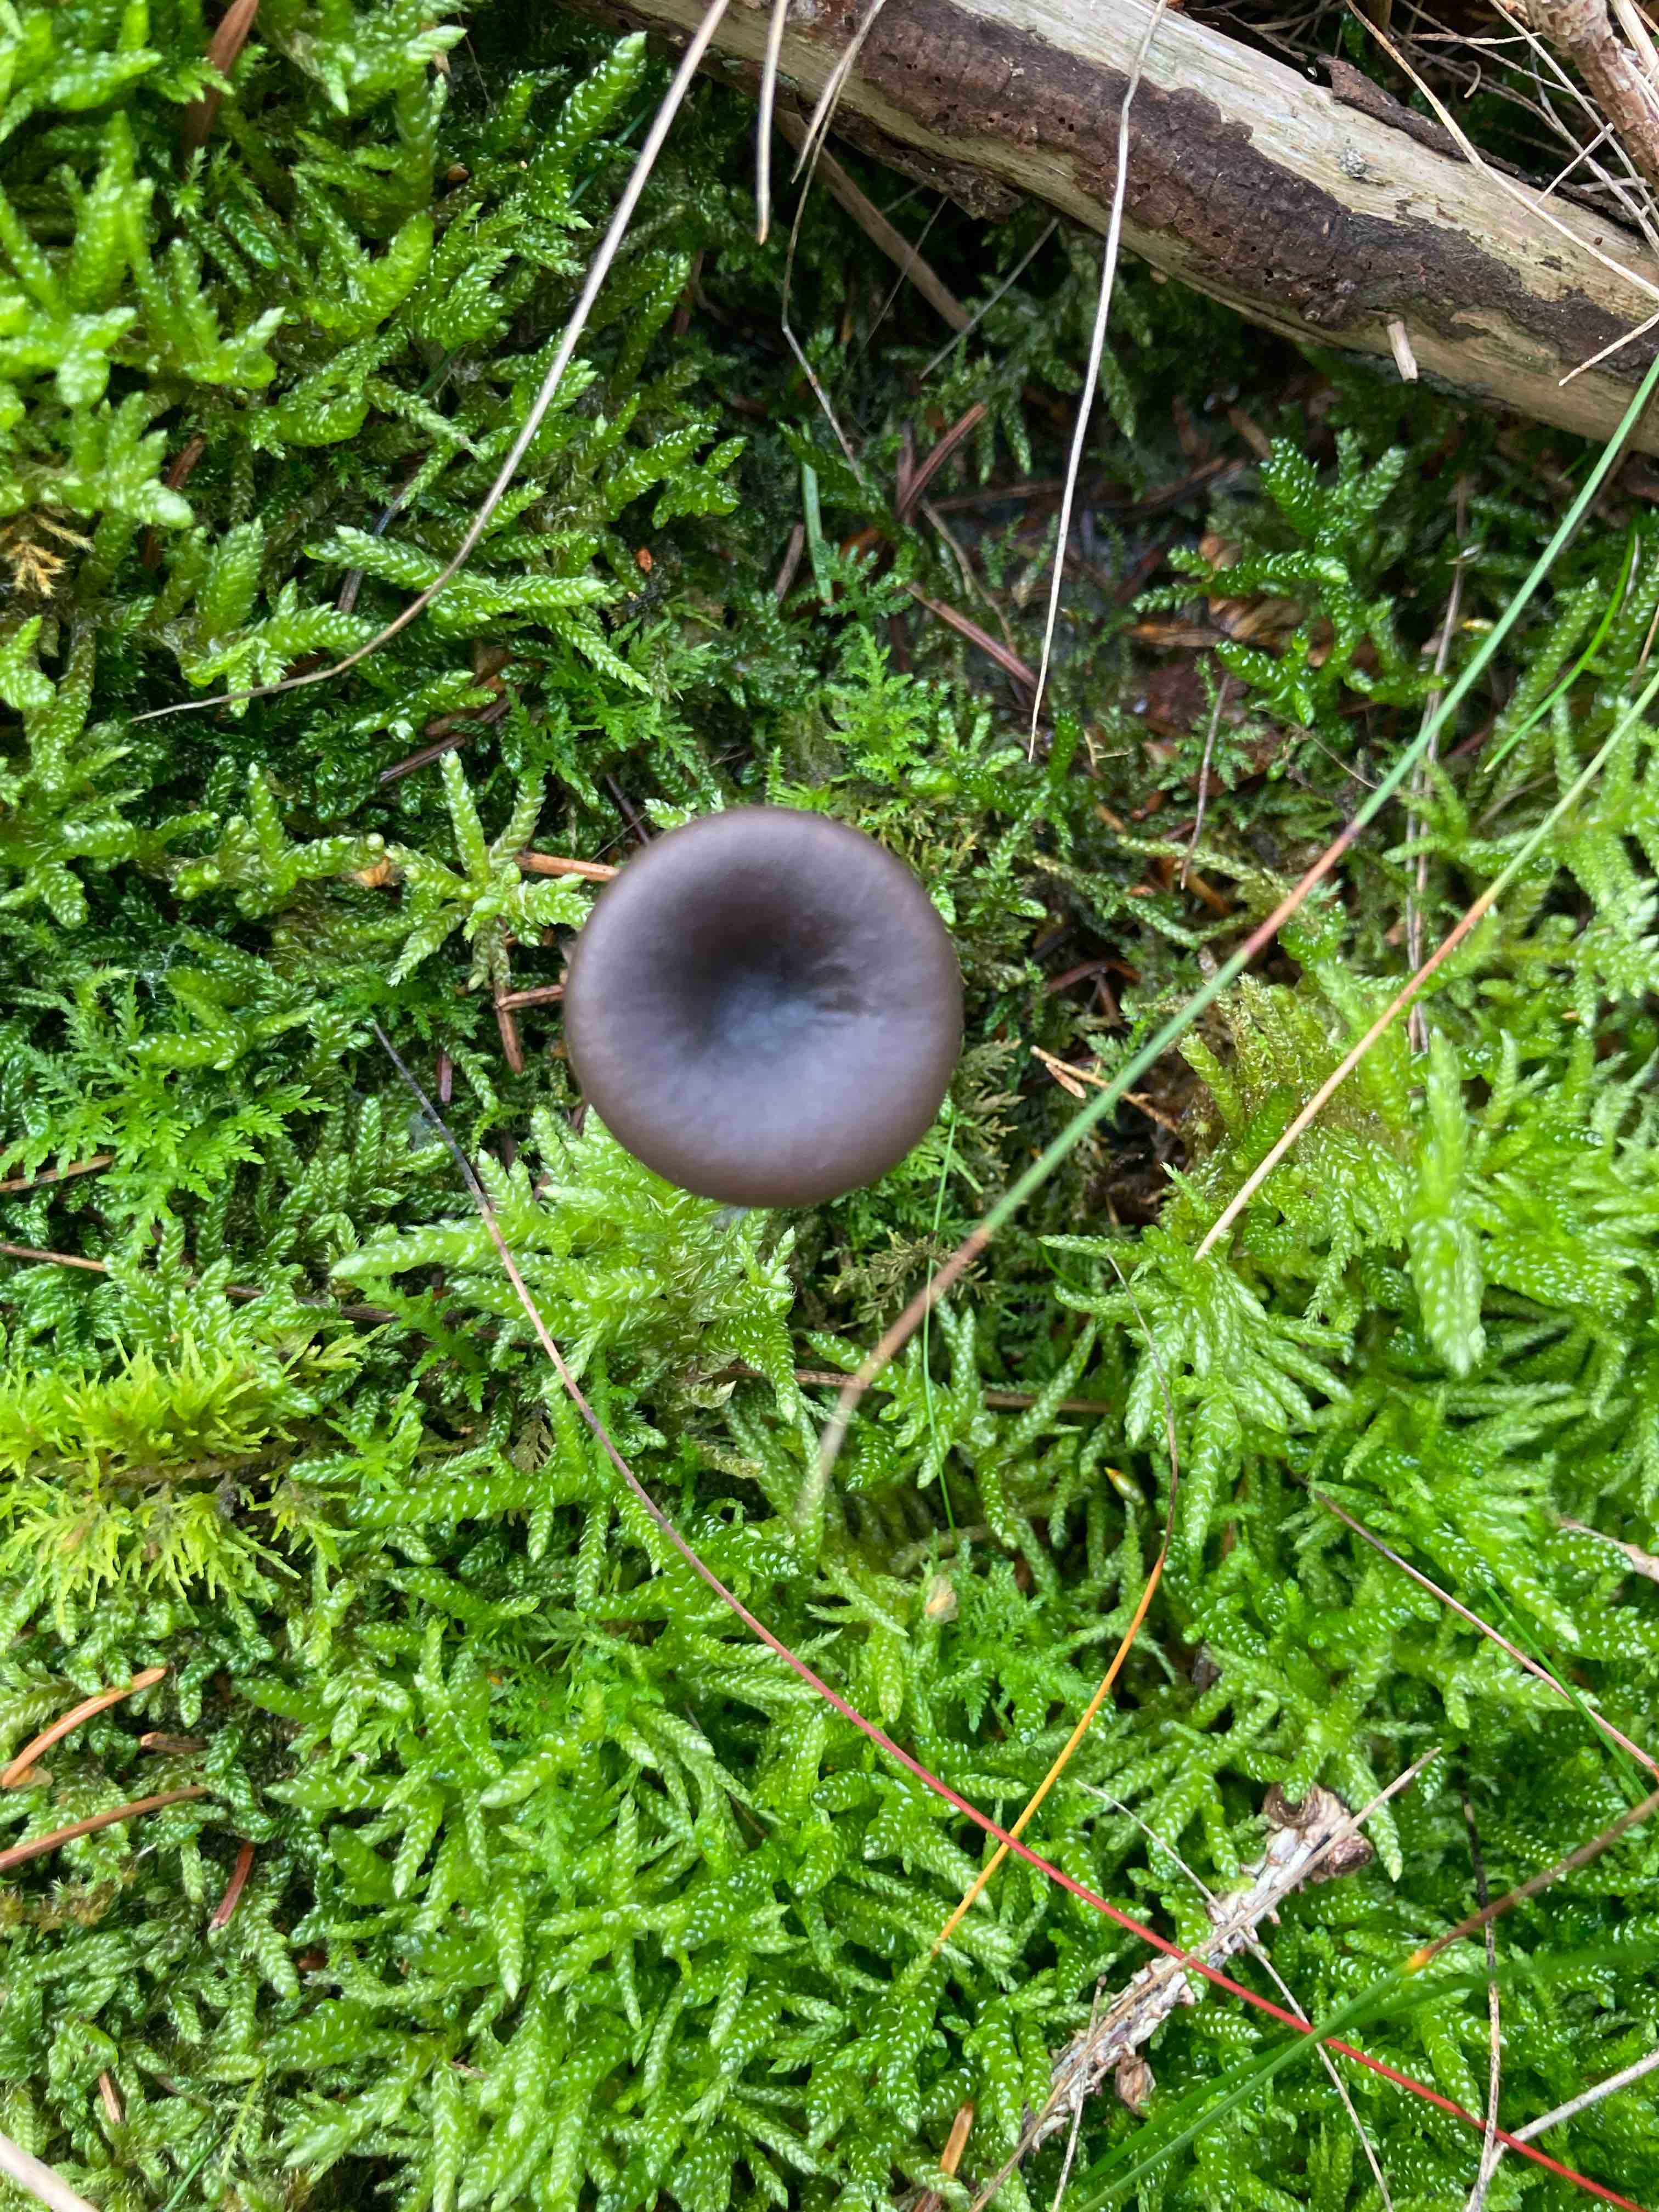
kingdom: Fungi
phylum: Basidiomycota
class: Agaricomycetes
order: Agaricales
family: Pseudoclitocybaceae
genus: Pseudoclitocybe
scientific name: Pseudoclitocybe cyathiformis
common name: almindelig bægertragthat
